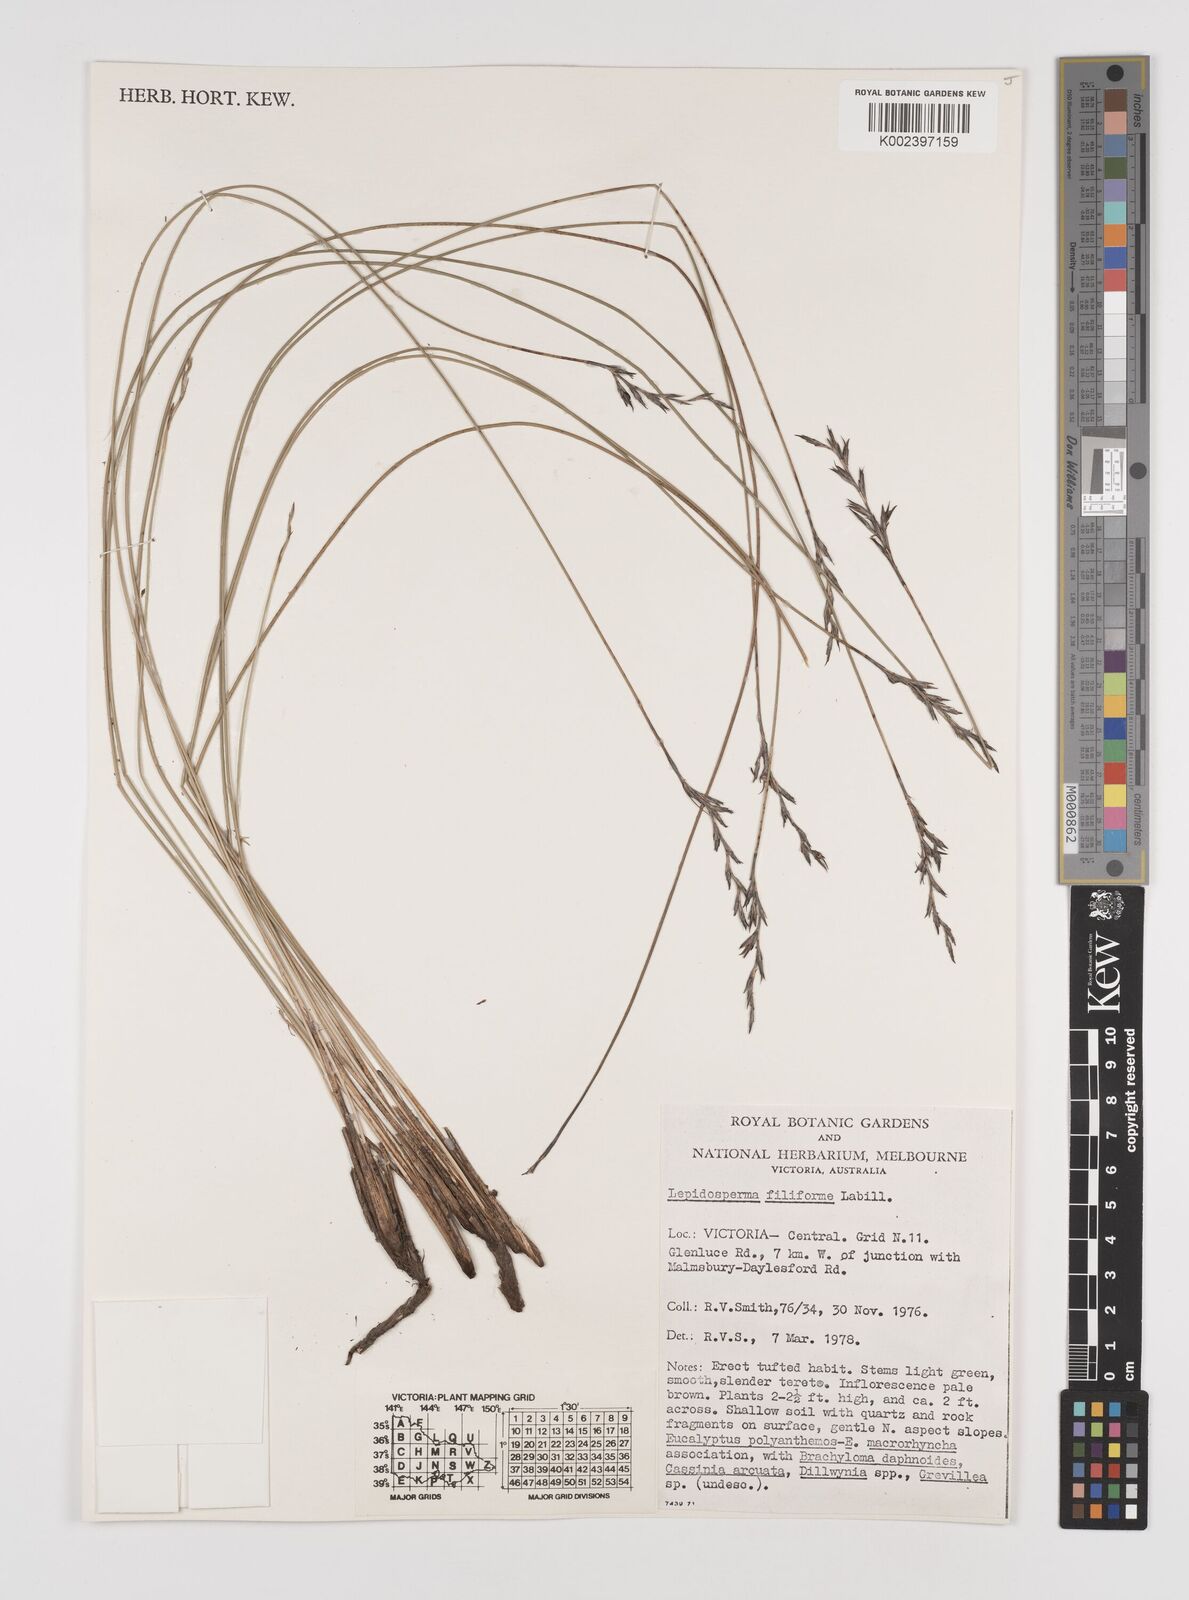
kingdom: Plantae
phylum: Tracheophyta
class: Liliopsida
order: Poales
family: Cyperaceae
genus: Lepidosperma
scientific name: Lepidosperma filiforme
